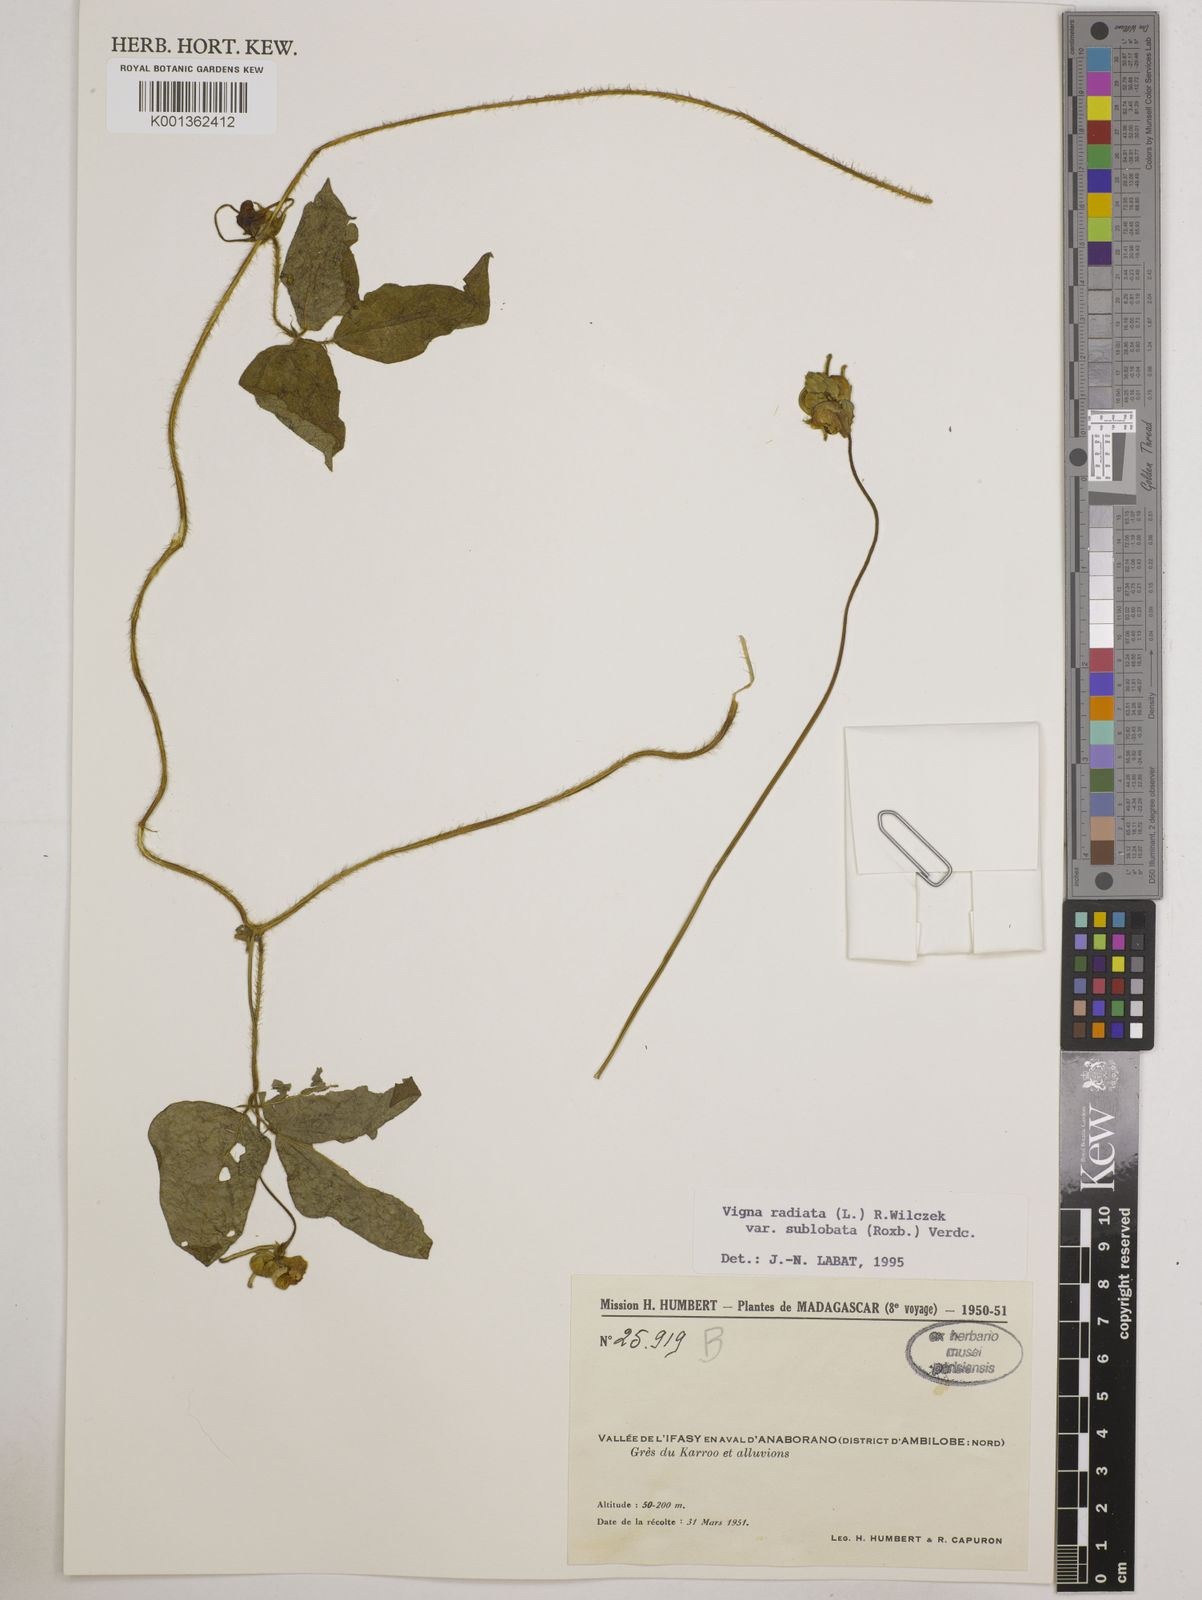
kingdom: Plantae
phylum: Tracheophyta
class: Magnoliopsida
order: Fabales
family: Fabaceae
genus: Vigna
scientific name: Vigna radiata
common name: Mung-bean
